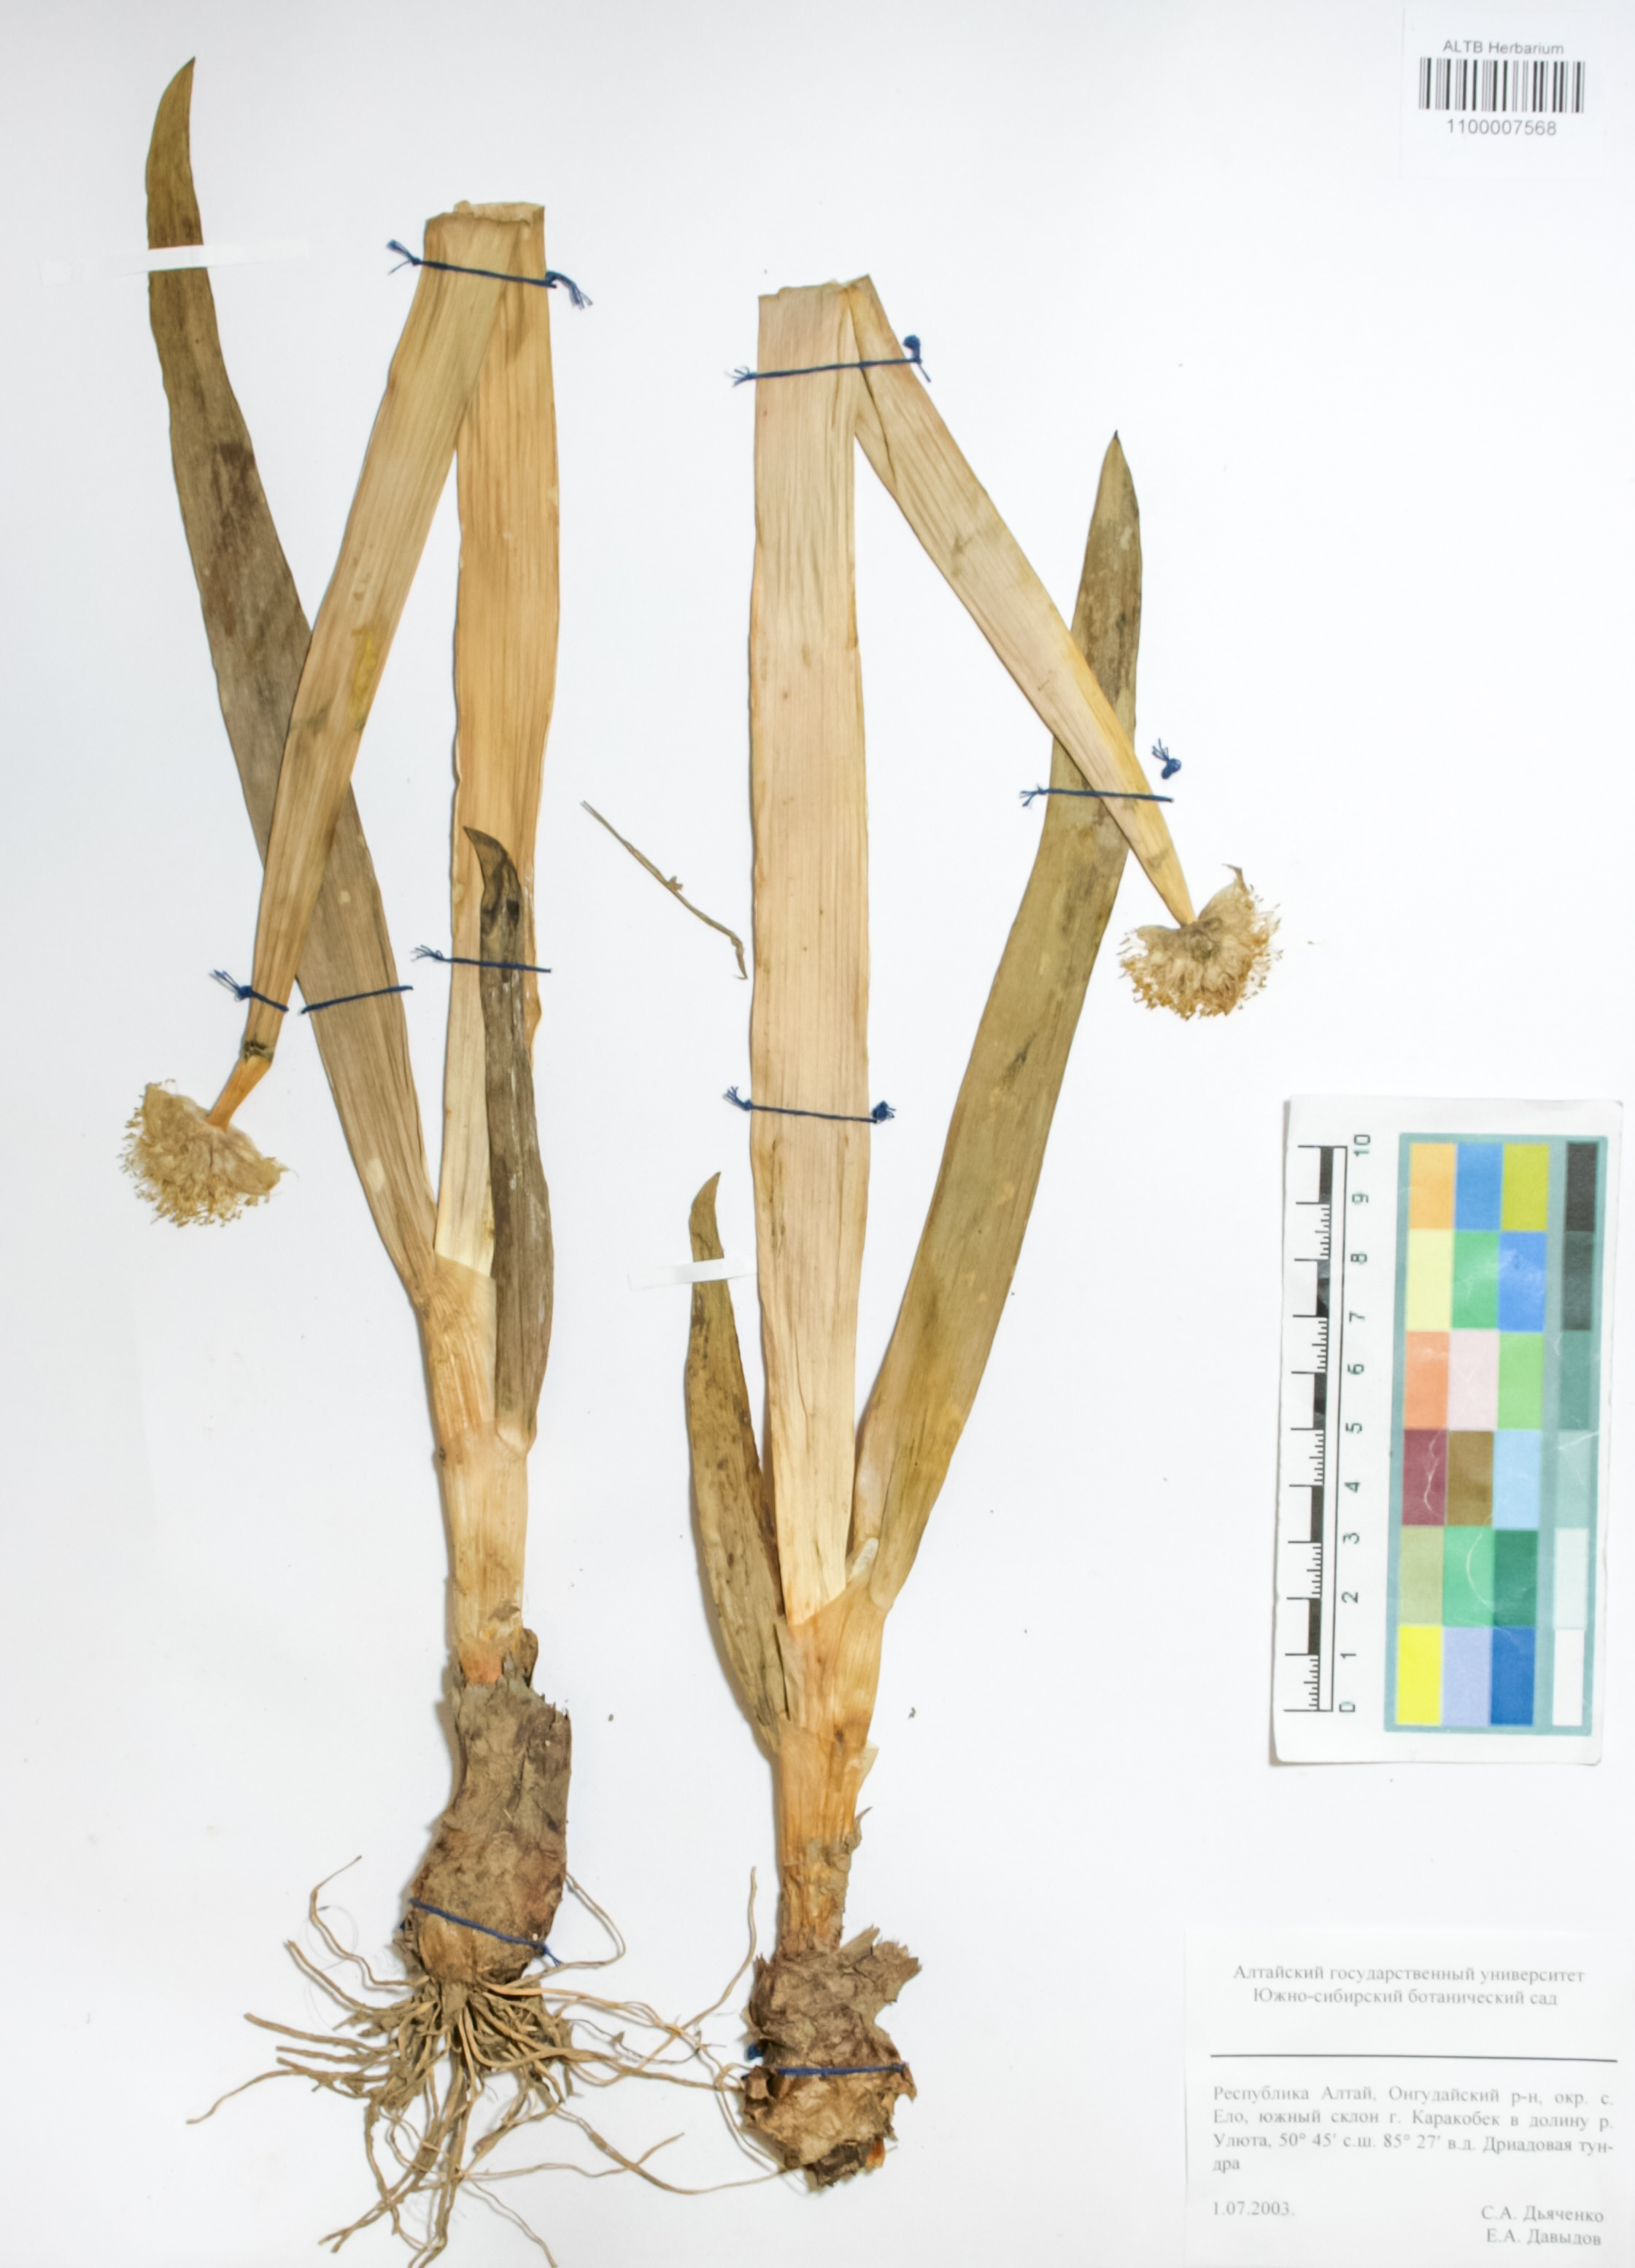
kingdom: Plantae
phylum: Tracheophyta
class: Liliopsida
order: Asparagales
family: Amaryllidaceae
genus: Allium
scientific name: Allium altaicum
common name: Altai onion
